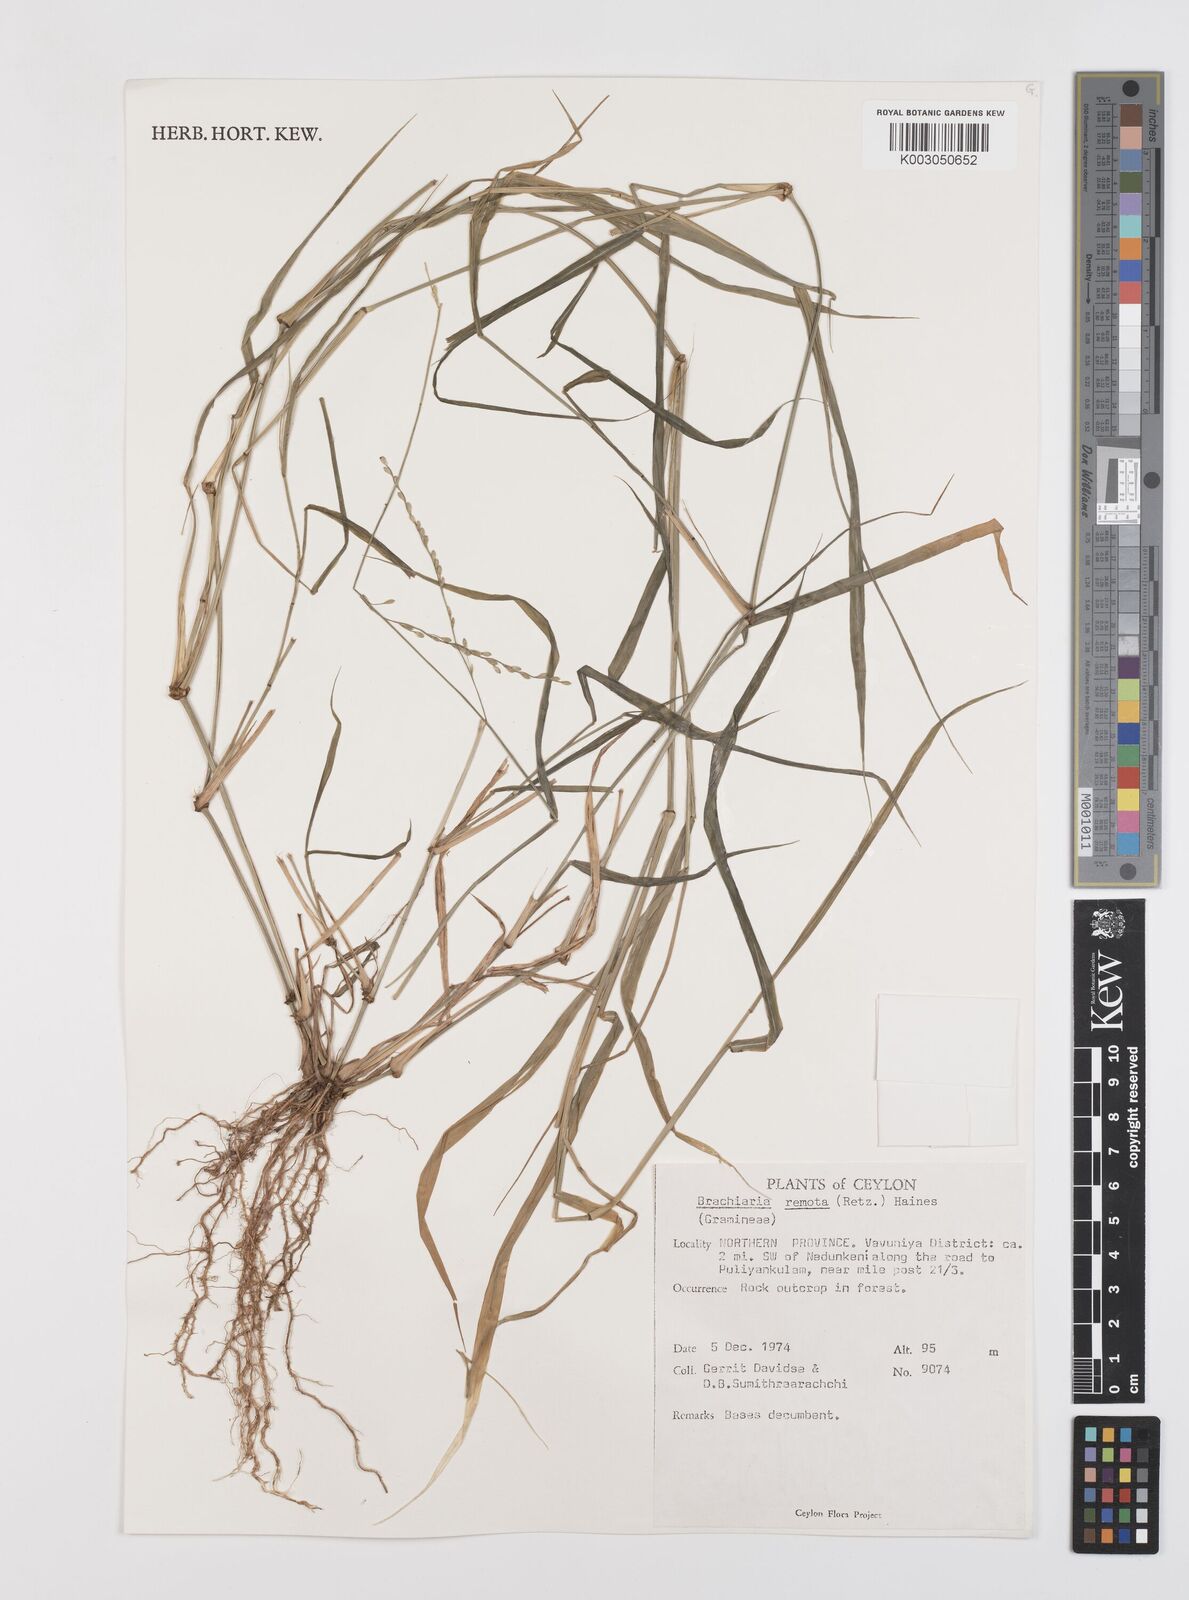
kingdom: Plantae
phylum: Tracheophyta
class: Liliopsida
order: Poales
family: Poaceae
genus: Urochloa
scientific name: Urochloa Brachiaria remota
